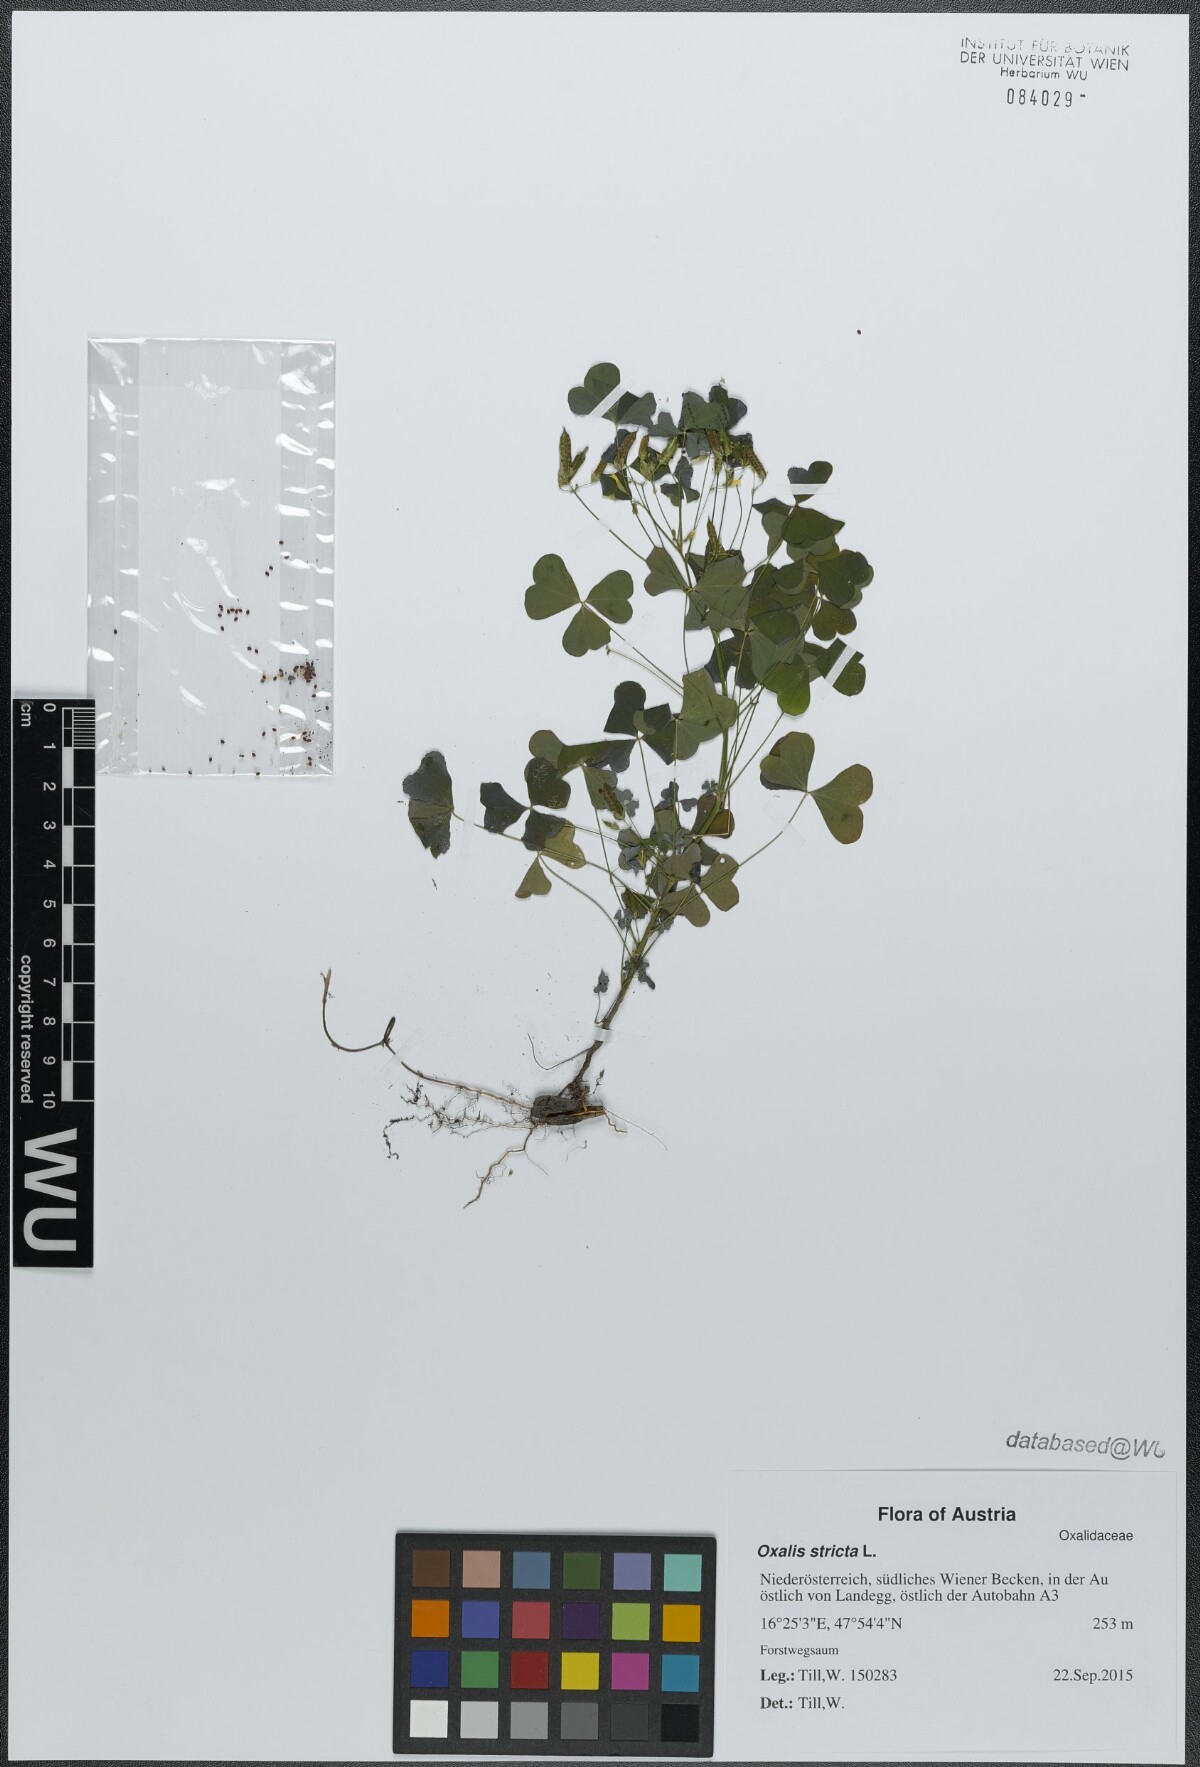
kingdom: Plantae
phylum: Tracheophyta
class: Magnoliopsida
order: Oxalidales
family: Oxalidaceae
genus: Oxalis
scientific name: Oxalis stricta
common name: Upright yellow-sorrel
